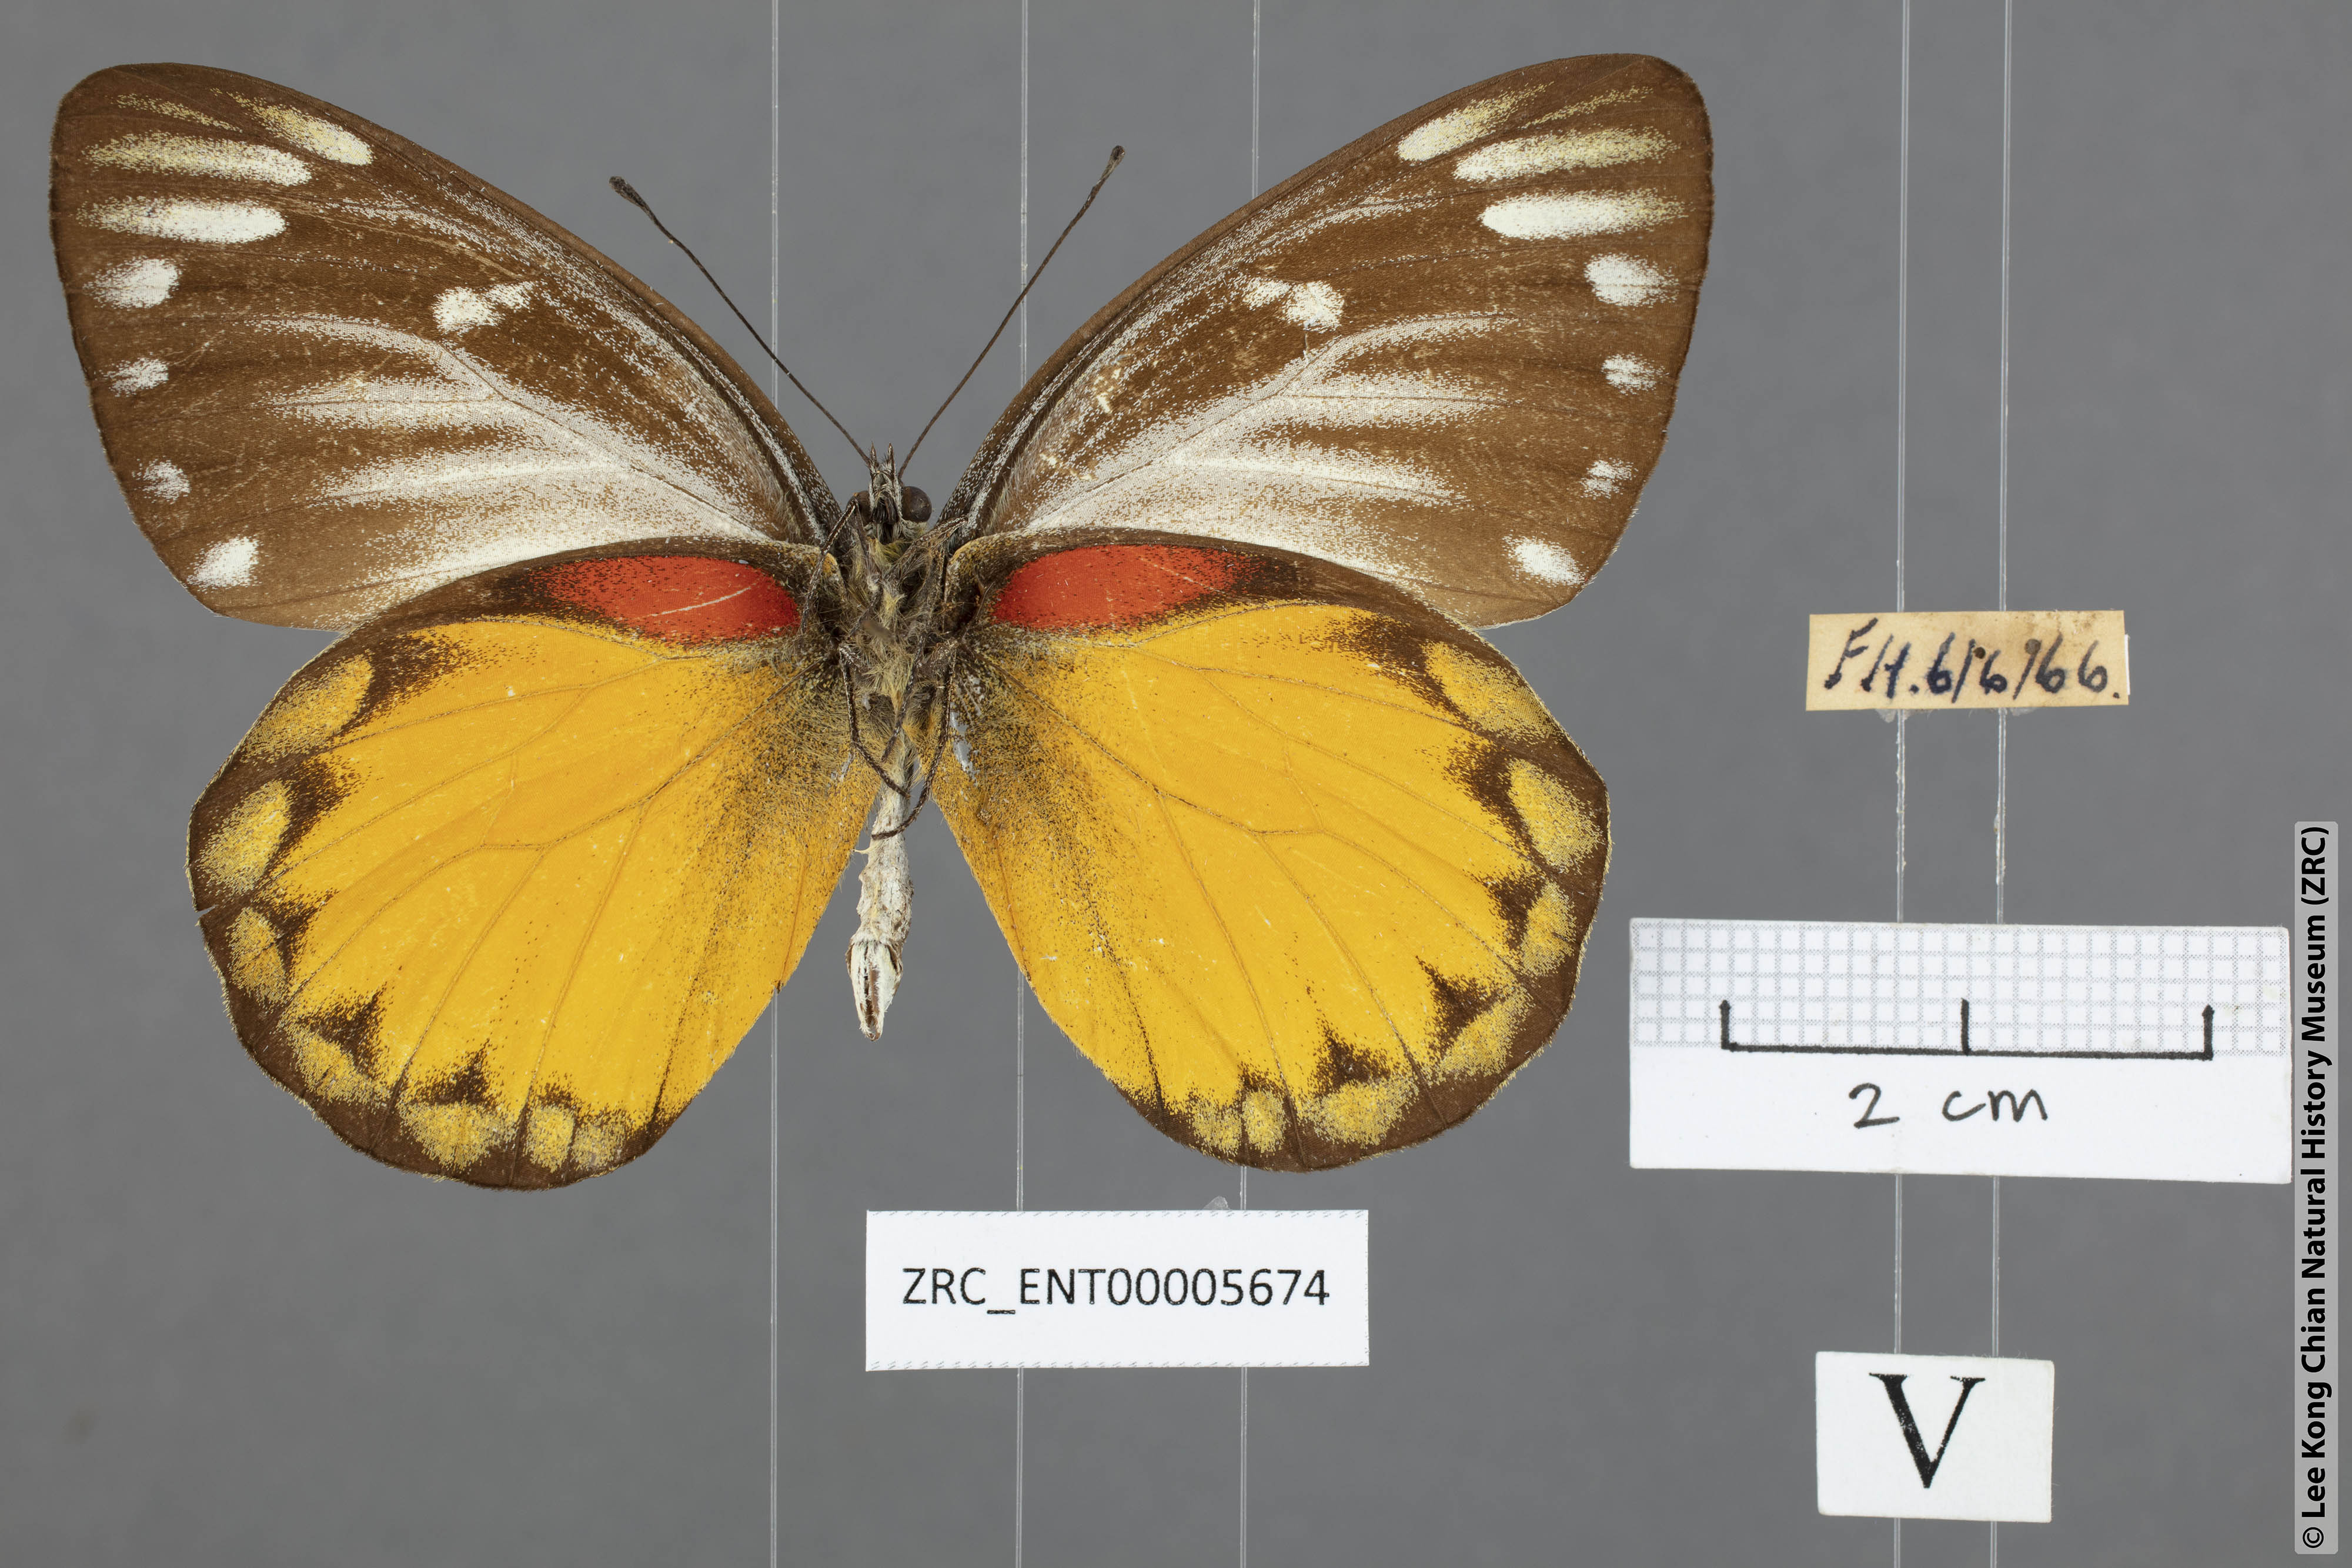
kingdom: Animalia
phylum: Arthropoda
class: Insecta
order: Lepidoptera
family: Pieridae
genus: Delias
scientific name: Delias descombesi
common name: Red-spot jezebel
